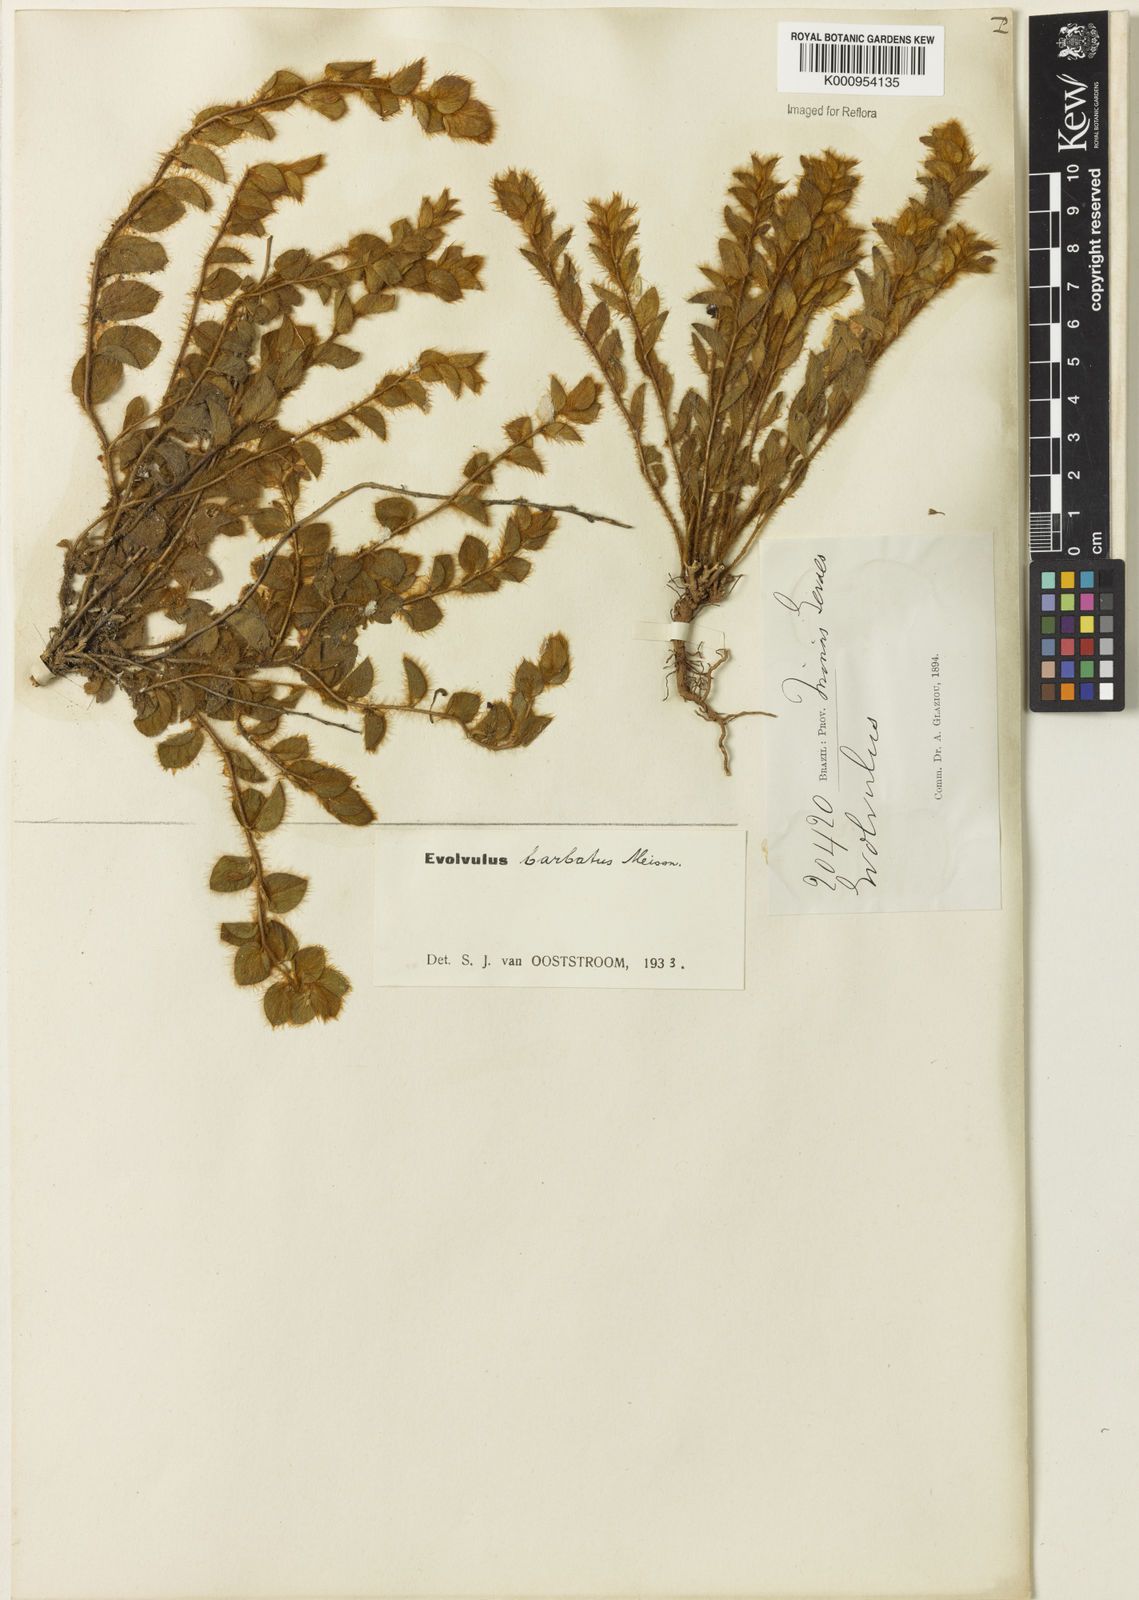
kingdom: Plantae
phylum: Tracheophyta
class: Magnoliopsida
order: Solanales
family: Convolvulaceae
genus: Evolvulus
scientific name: Evolvulus barbatus
